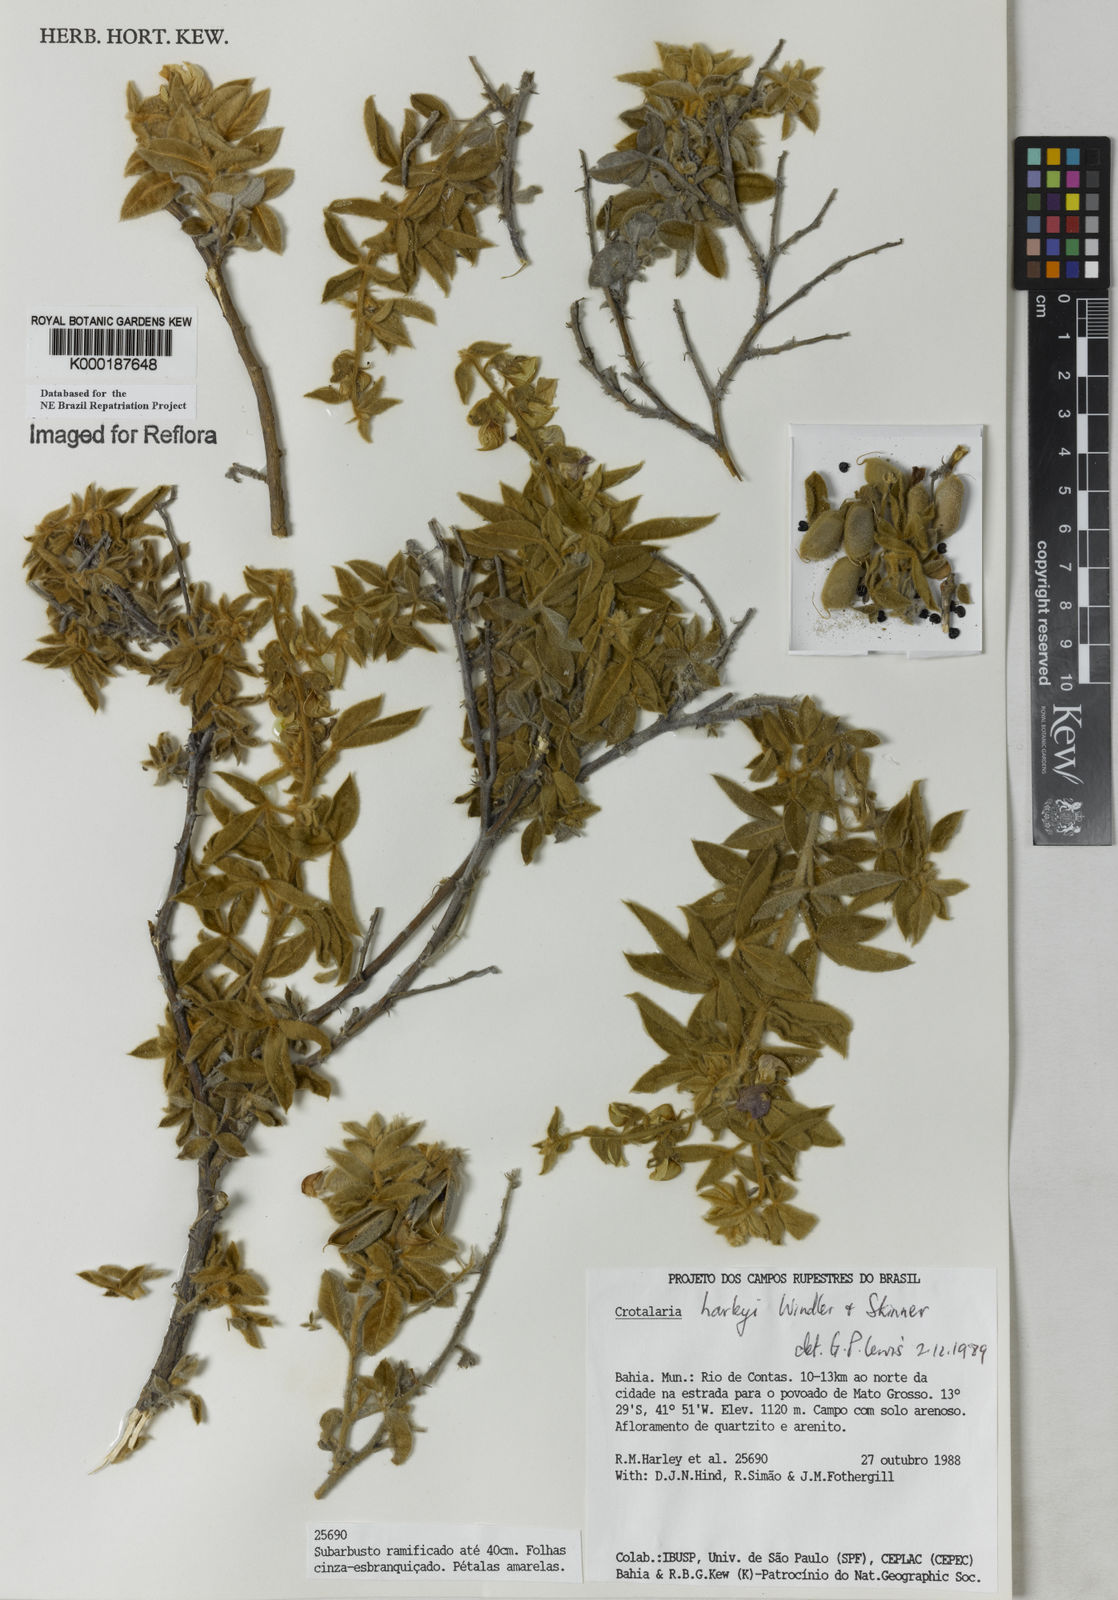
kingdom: Plantae
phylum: Tracheophyta
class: Magnoliopsida
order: Fabales
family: Fabaceae
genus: Crotalaria
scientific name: Crotalaria harleyi
